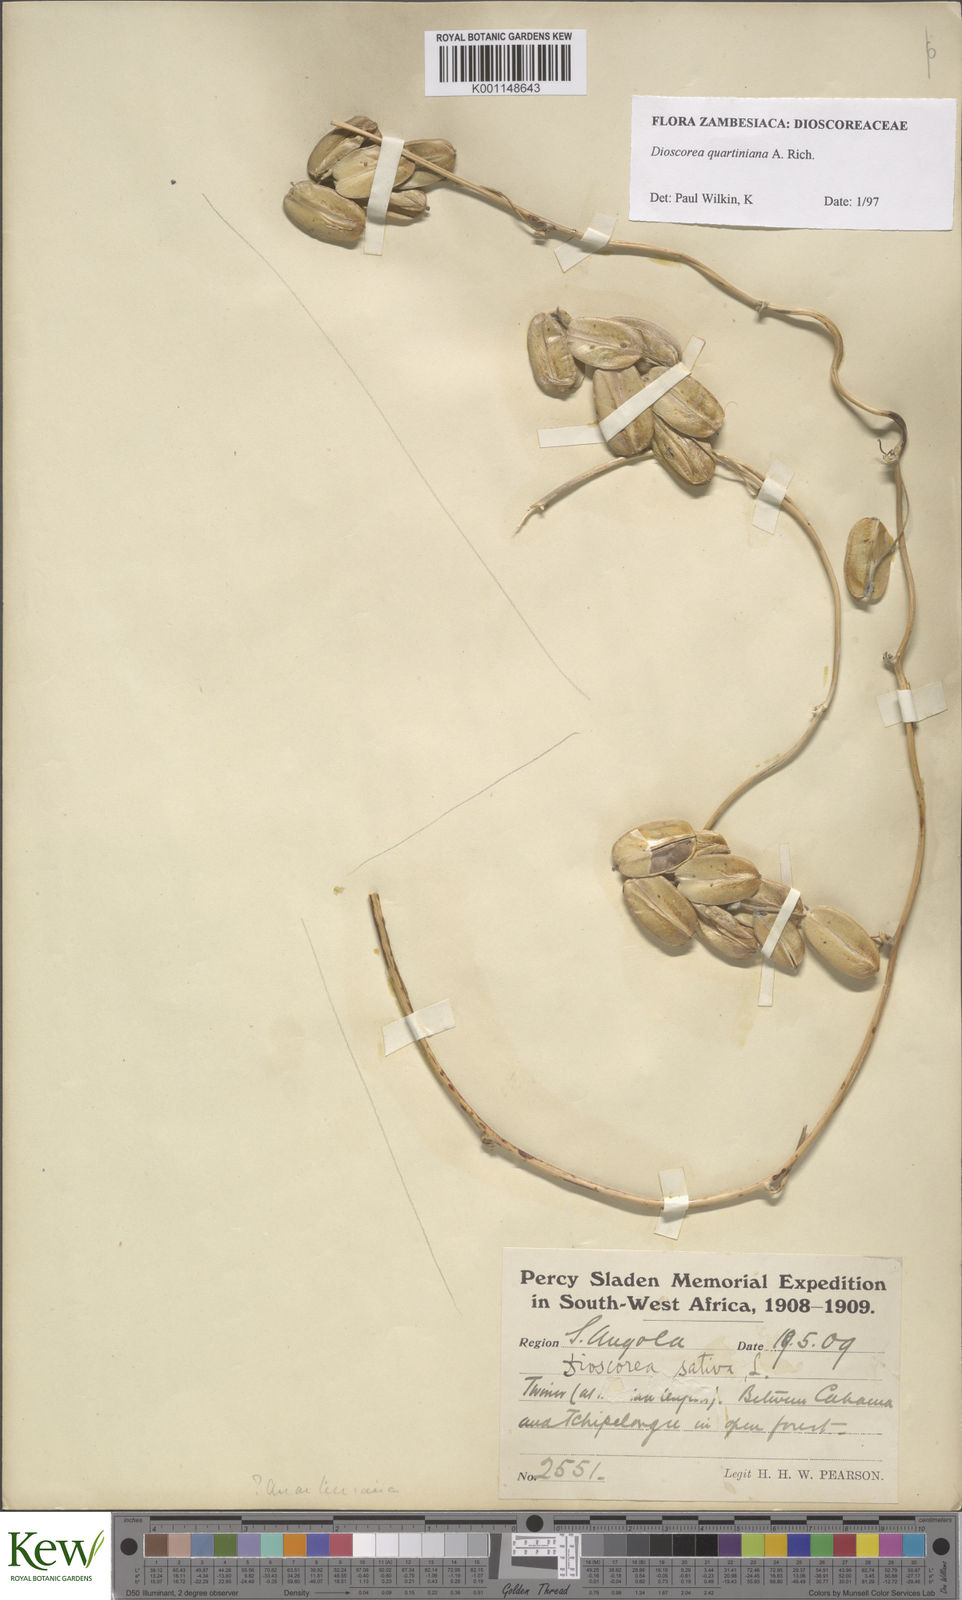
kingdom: Plantae
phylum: Tracheophyta
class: Liliopsida
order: Dioscoreales
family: Dioscoreaceae
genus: Dioscorea
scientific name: Dioscorea quartiniana
